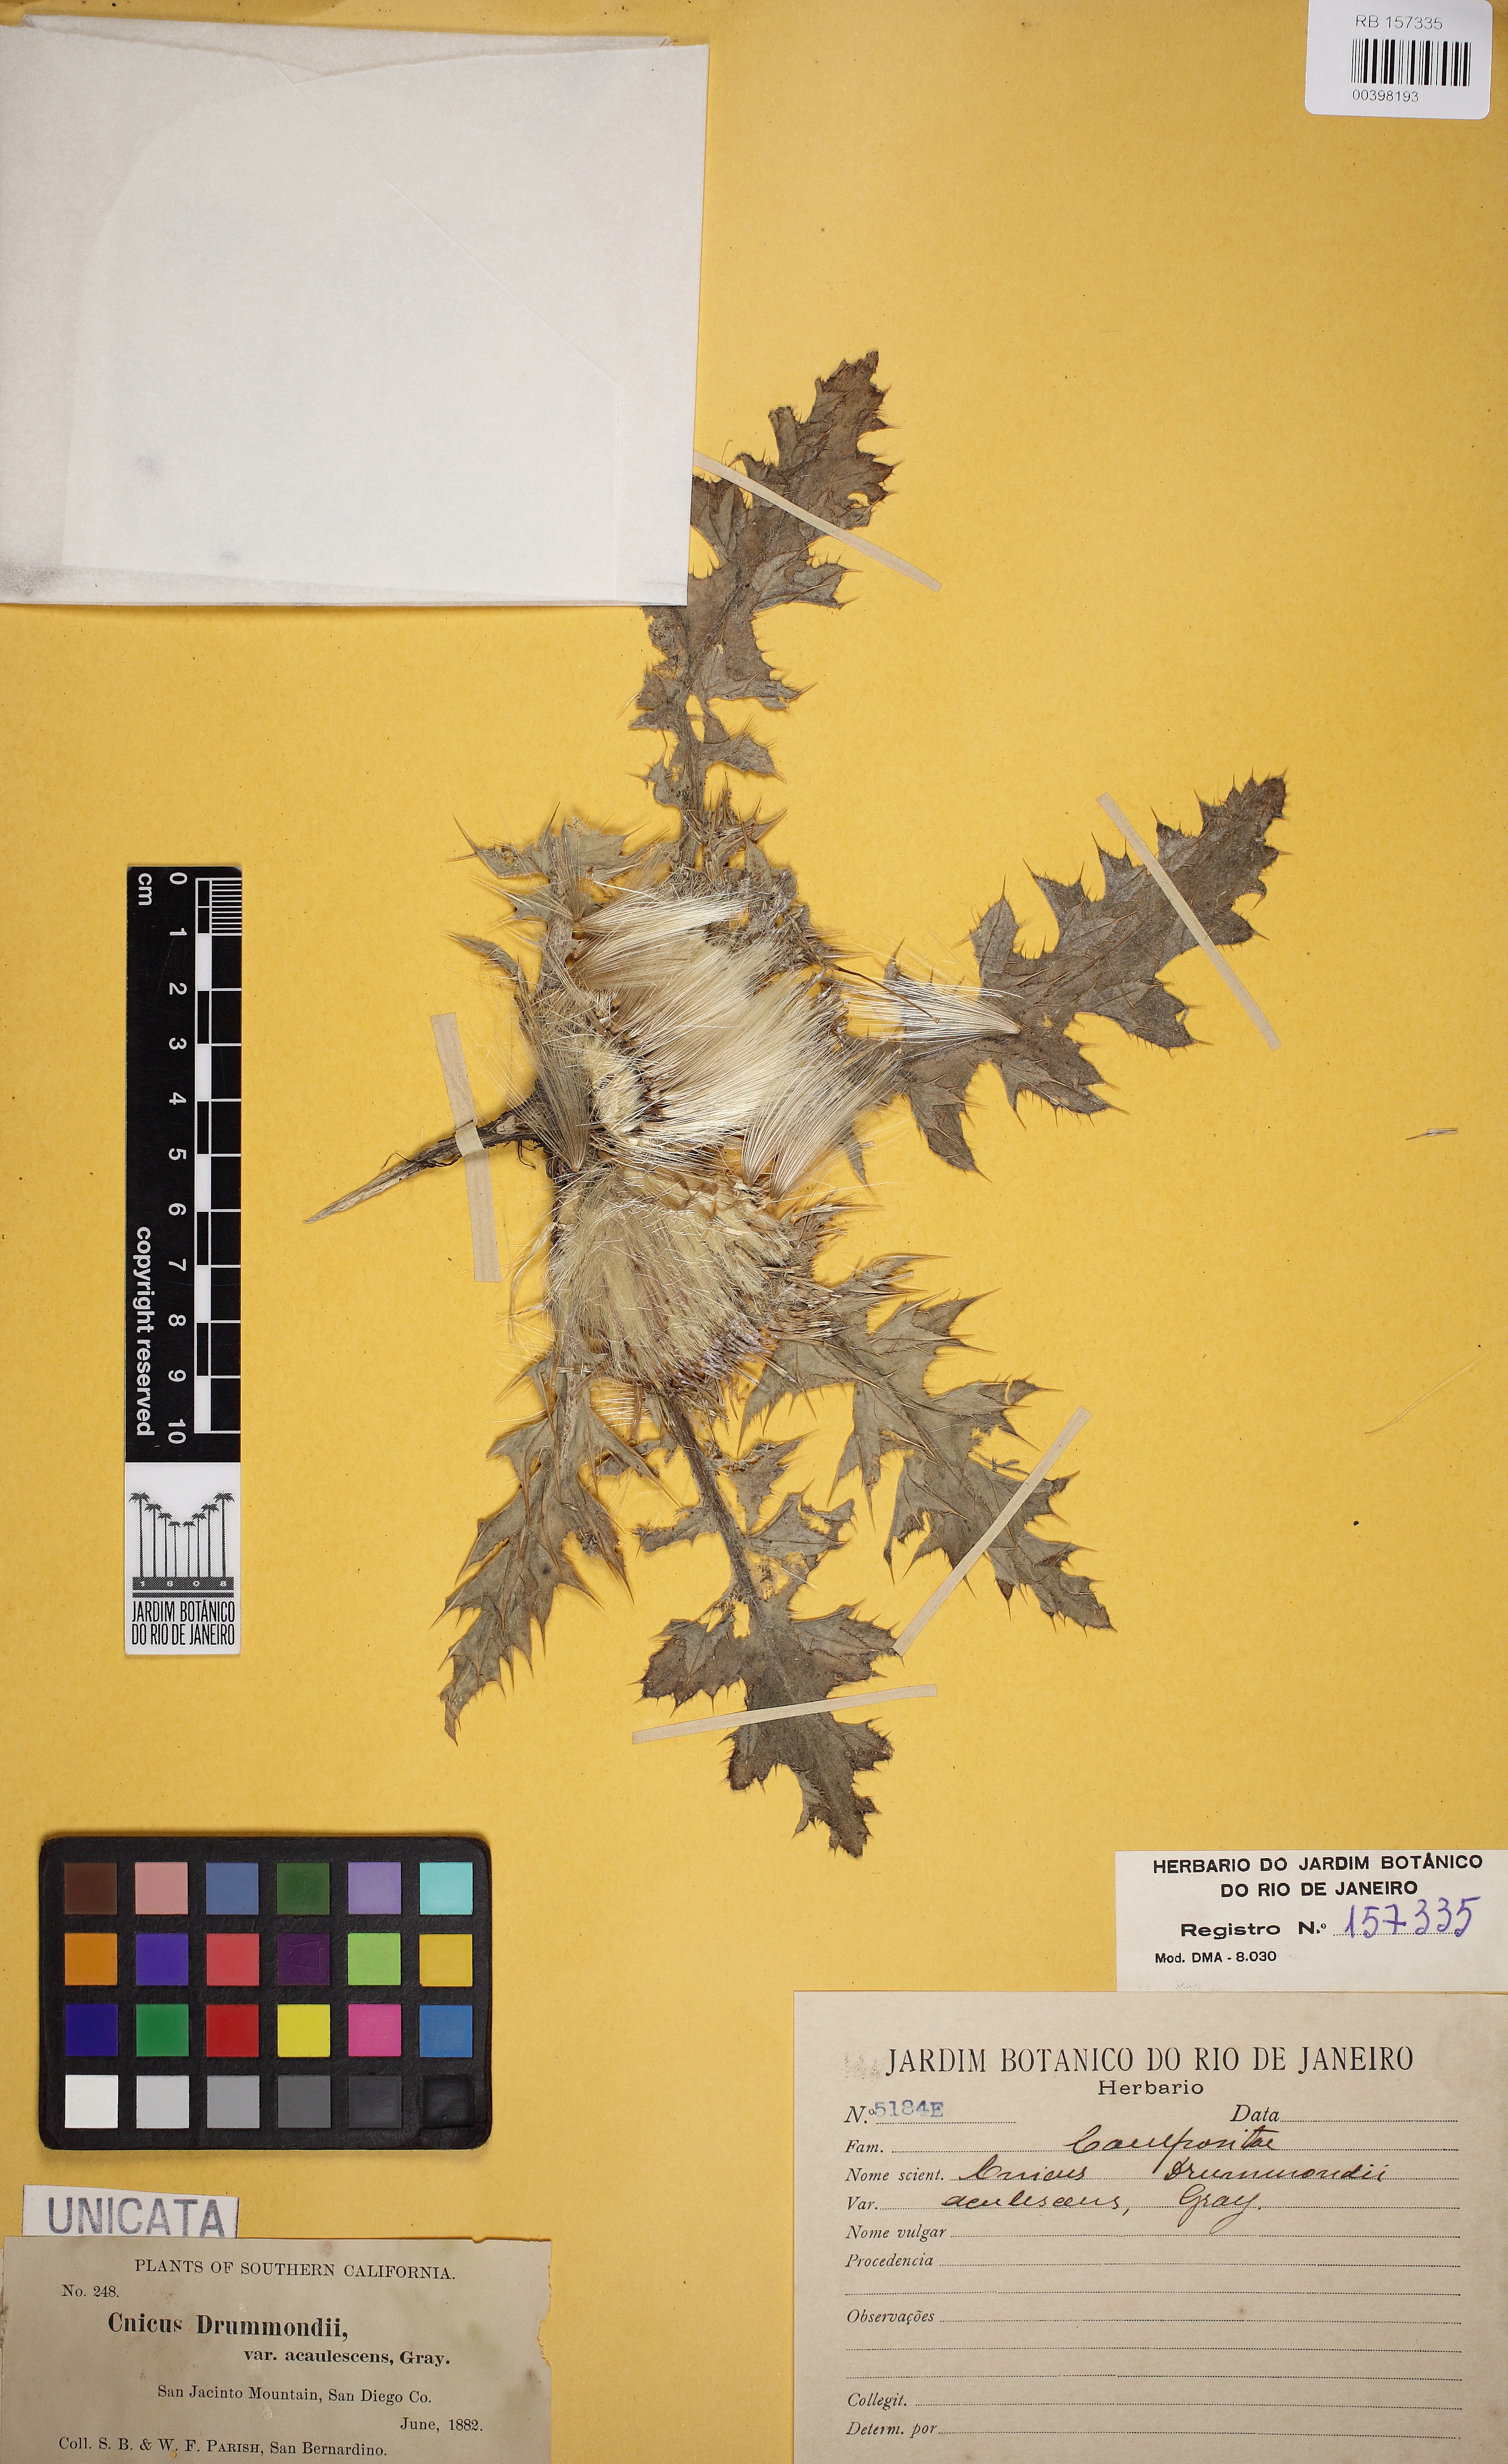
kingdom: Plantae
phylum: Tracheophyta
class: Magnoliopsida
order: Asterales
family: Asteraceae
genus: Cirsium
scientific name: Cirsium tioganum
